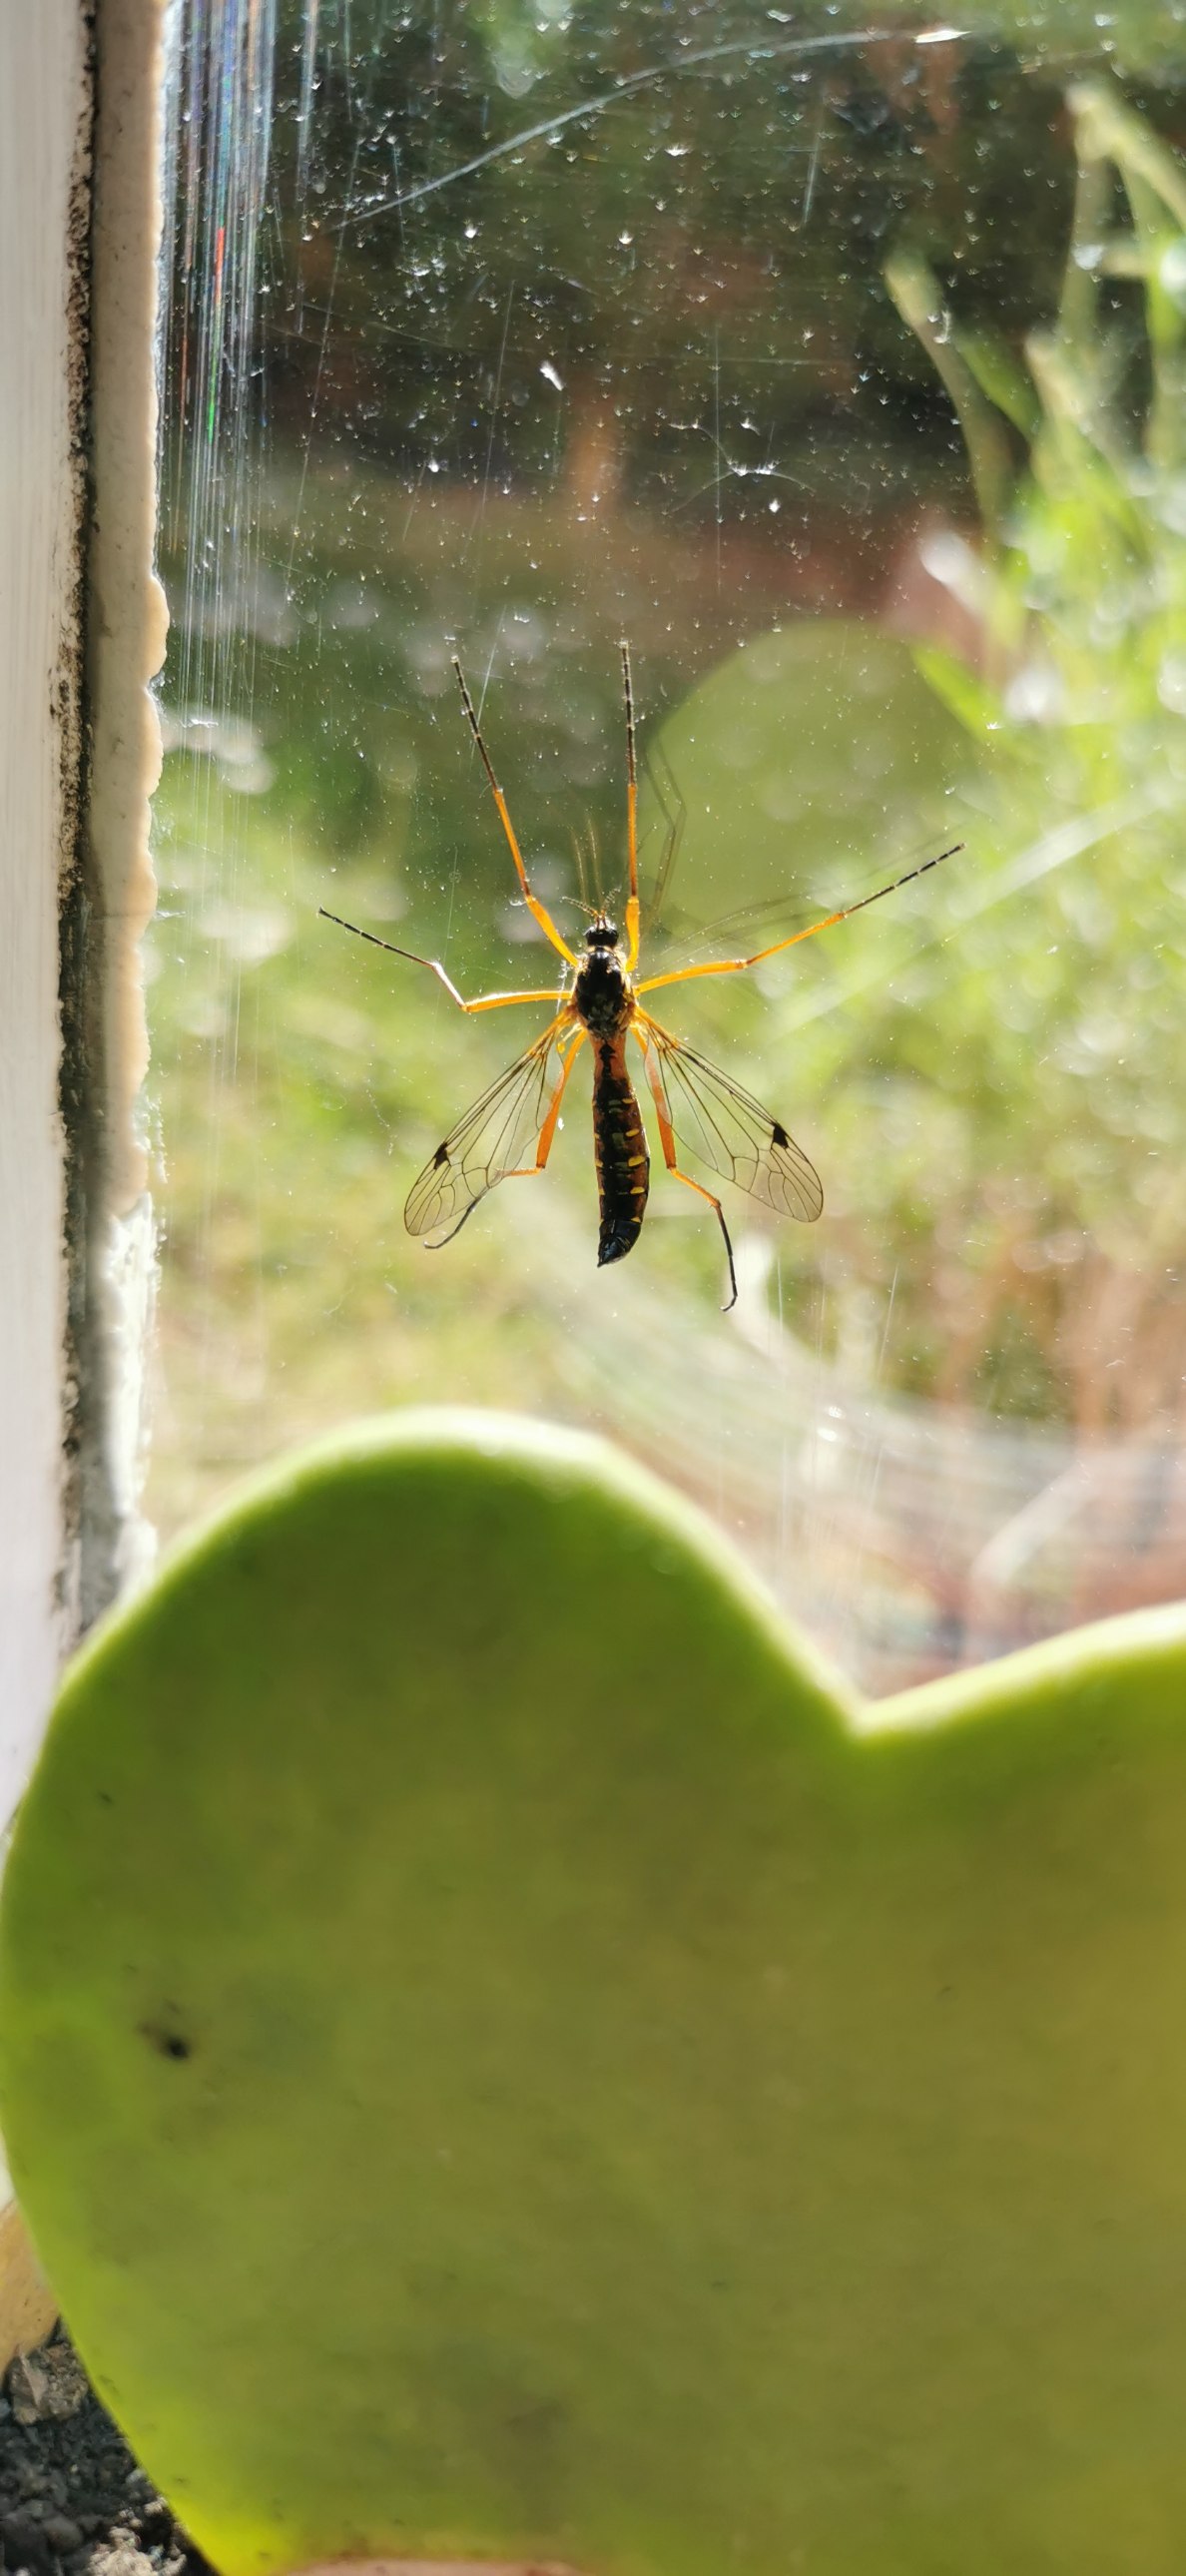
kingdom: Animalia
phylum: Arthropoda
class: Insecta
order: Diptera
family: Tipulidae
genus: Ctenophora
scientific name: Ctenophora pectinicornis
